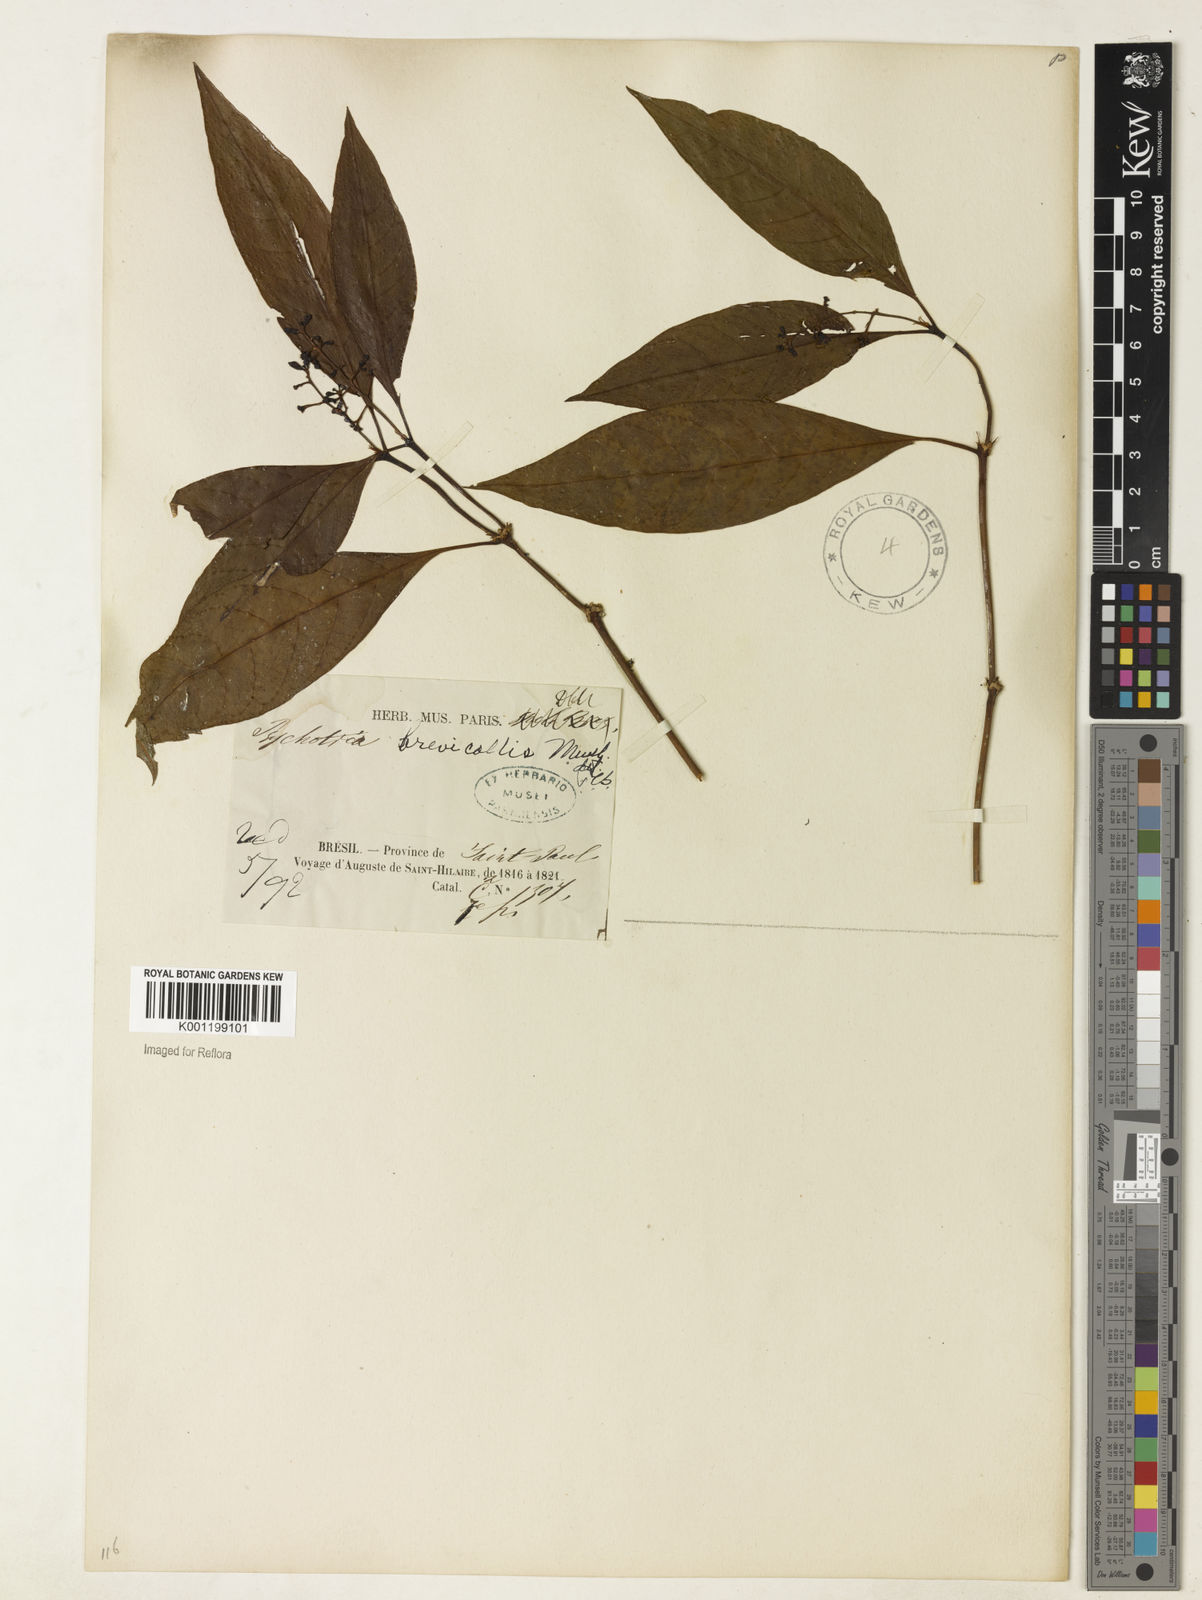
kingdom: Plantae
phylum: Tracheophyta
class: Magnoliopsida
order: Gentianales
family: Rubiaceae
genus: Psychotria
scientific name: Psychotria
